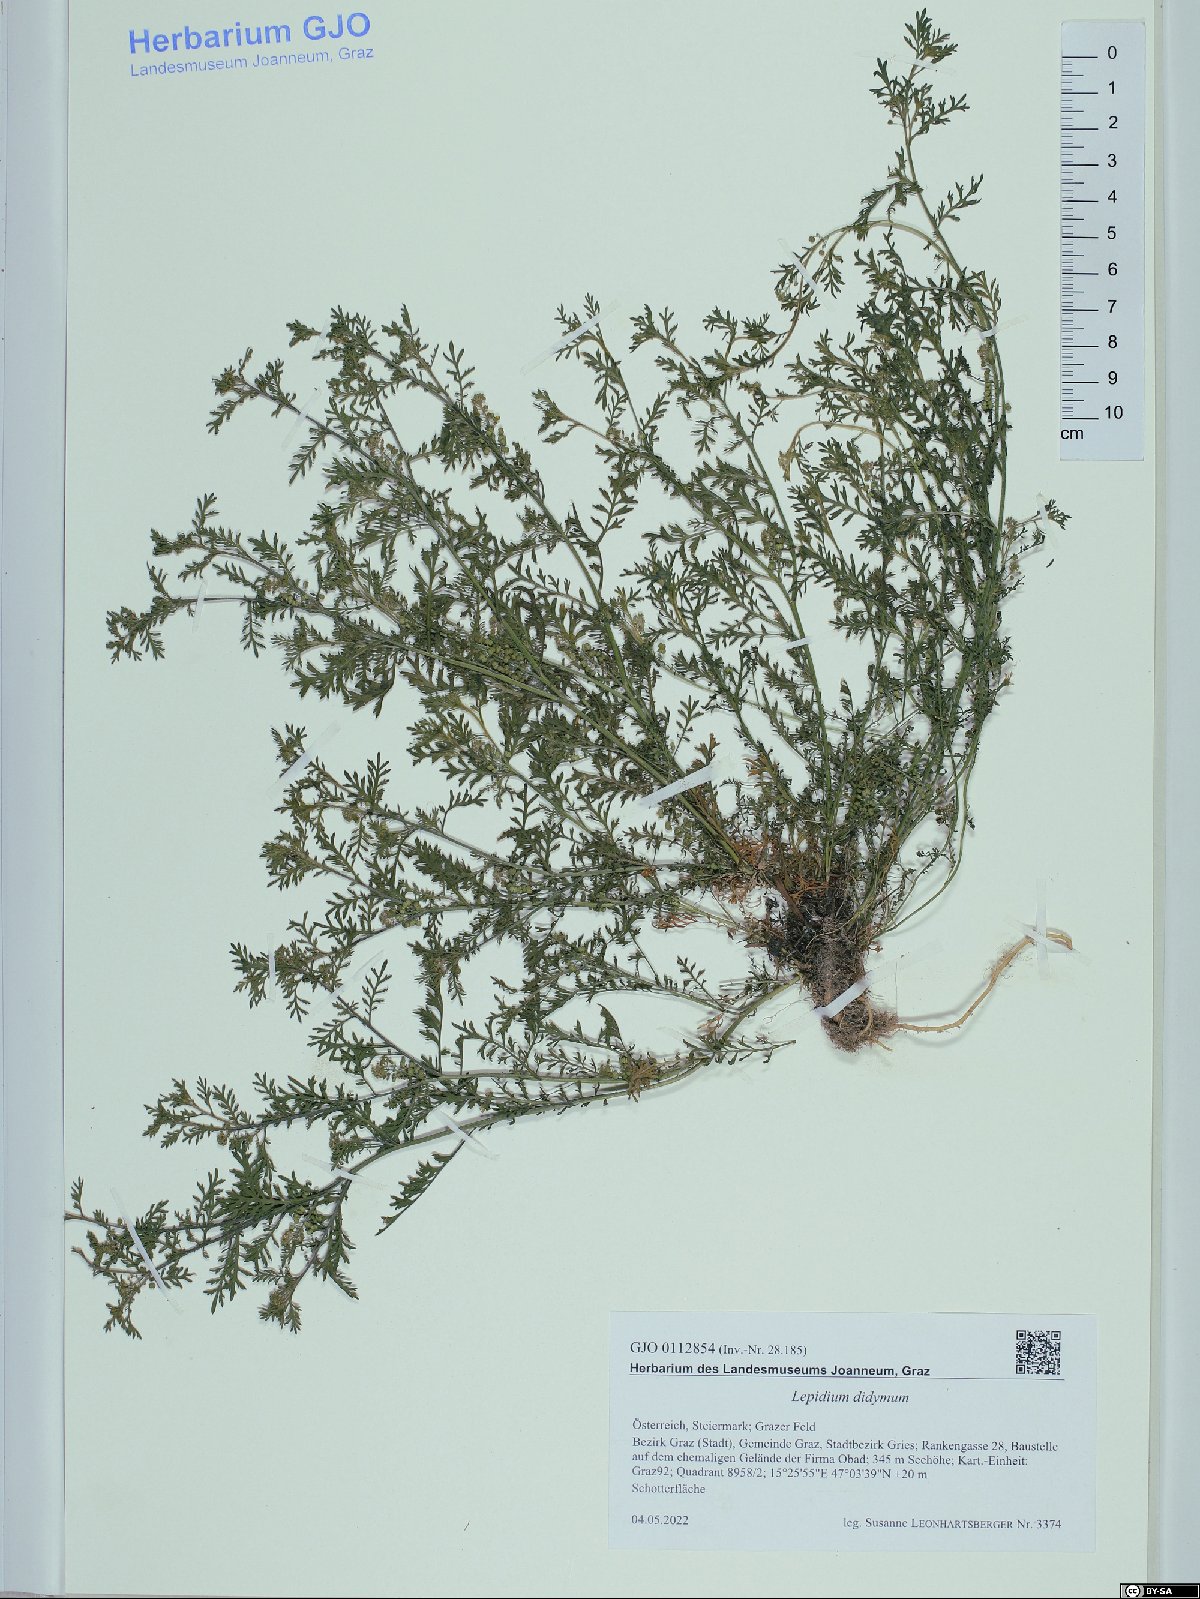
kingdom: Plantae
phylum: Tracheophyta
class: Magnoliopsida
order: Brassicales
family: Brassicaceae
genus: Lepidium
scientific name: Lepidium didymum
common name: Lesser swinecress
